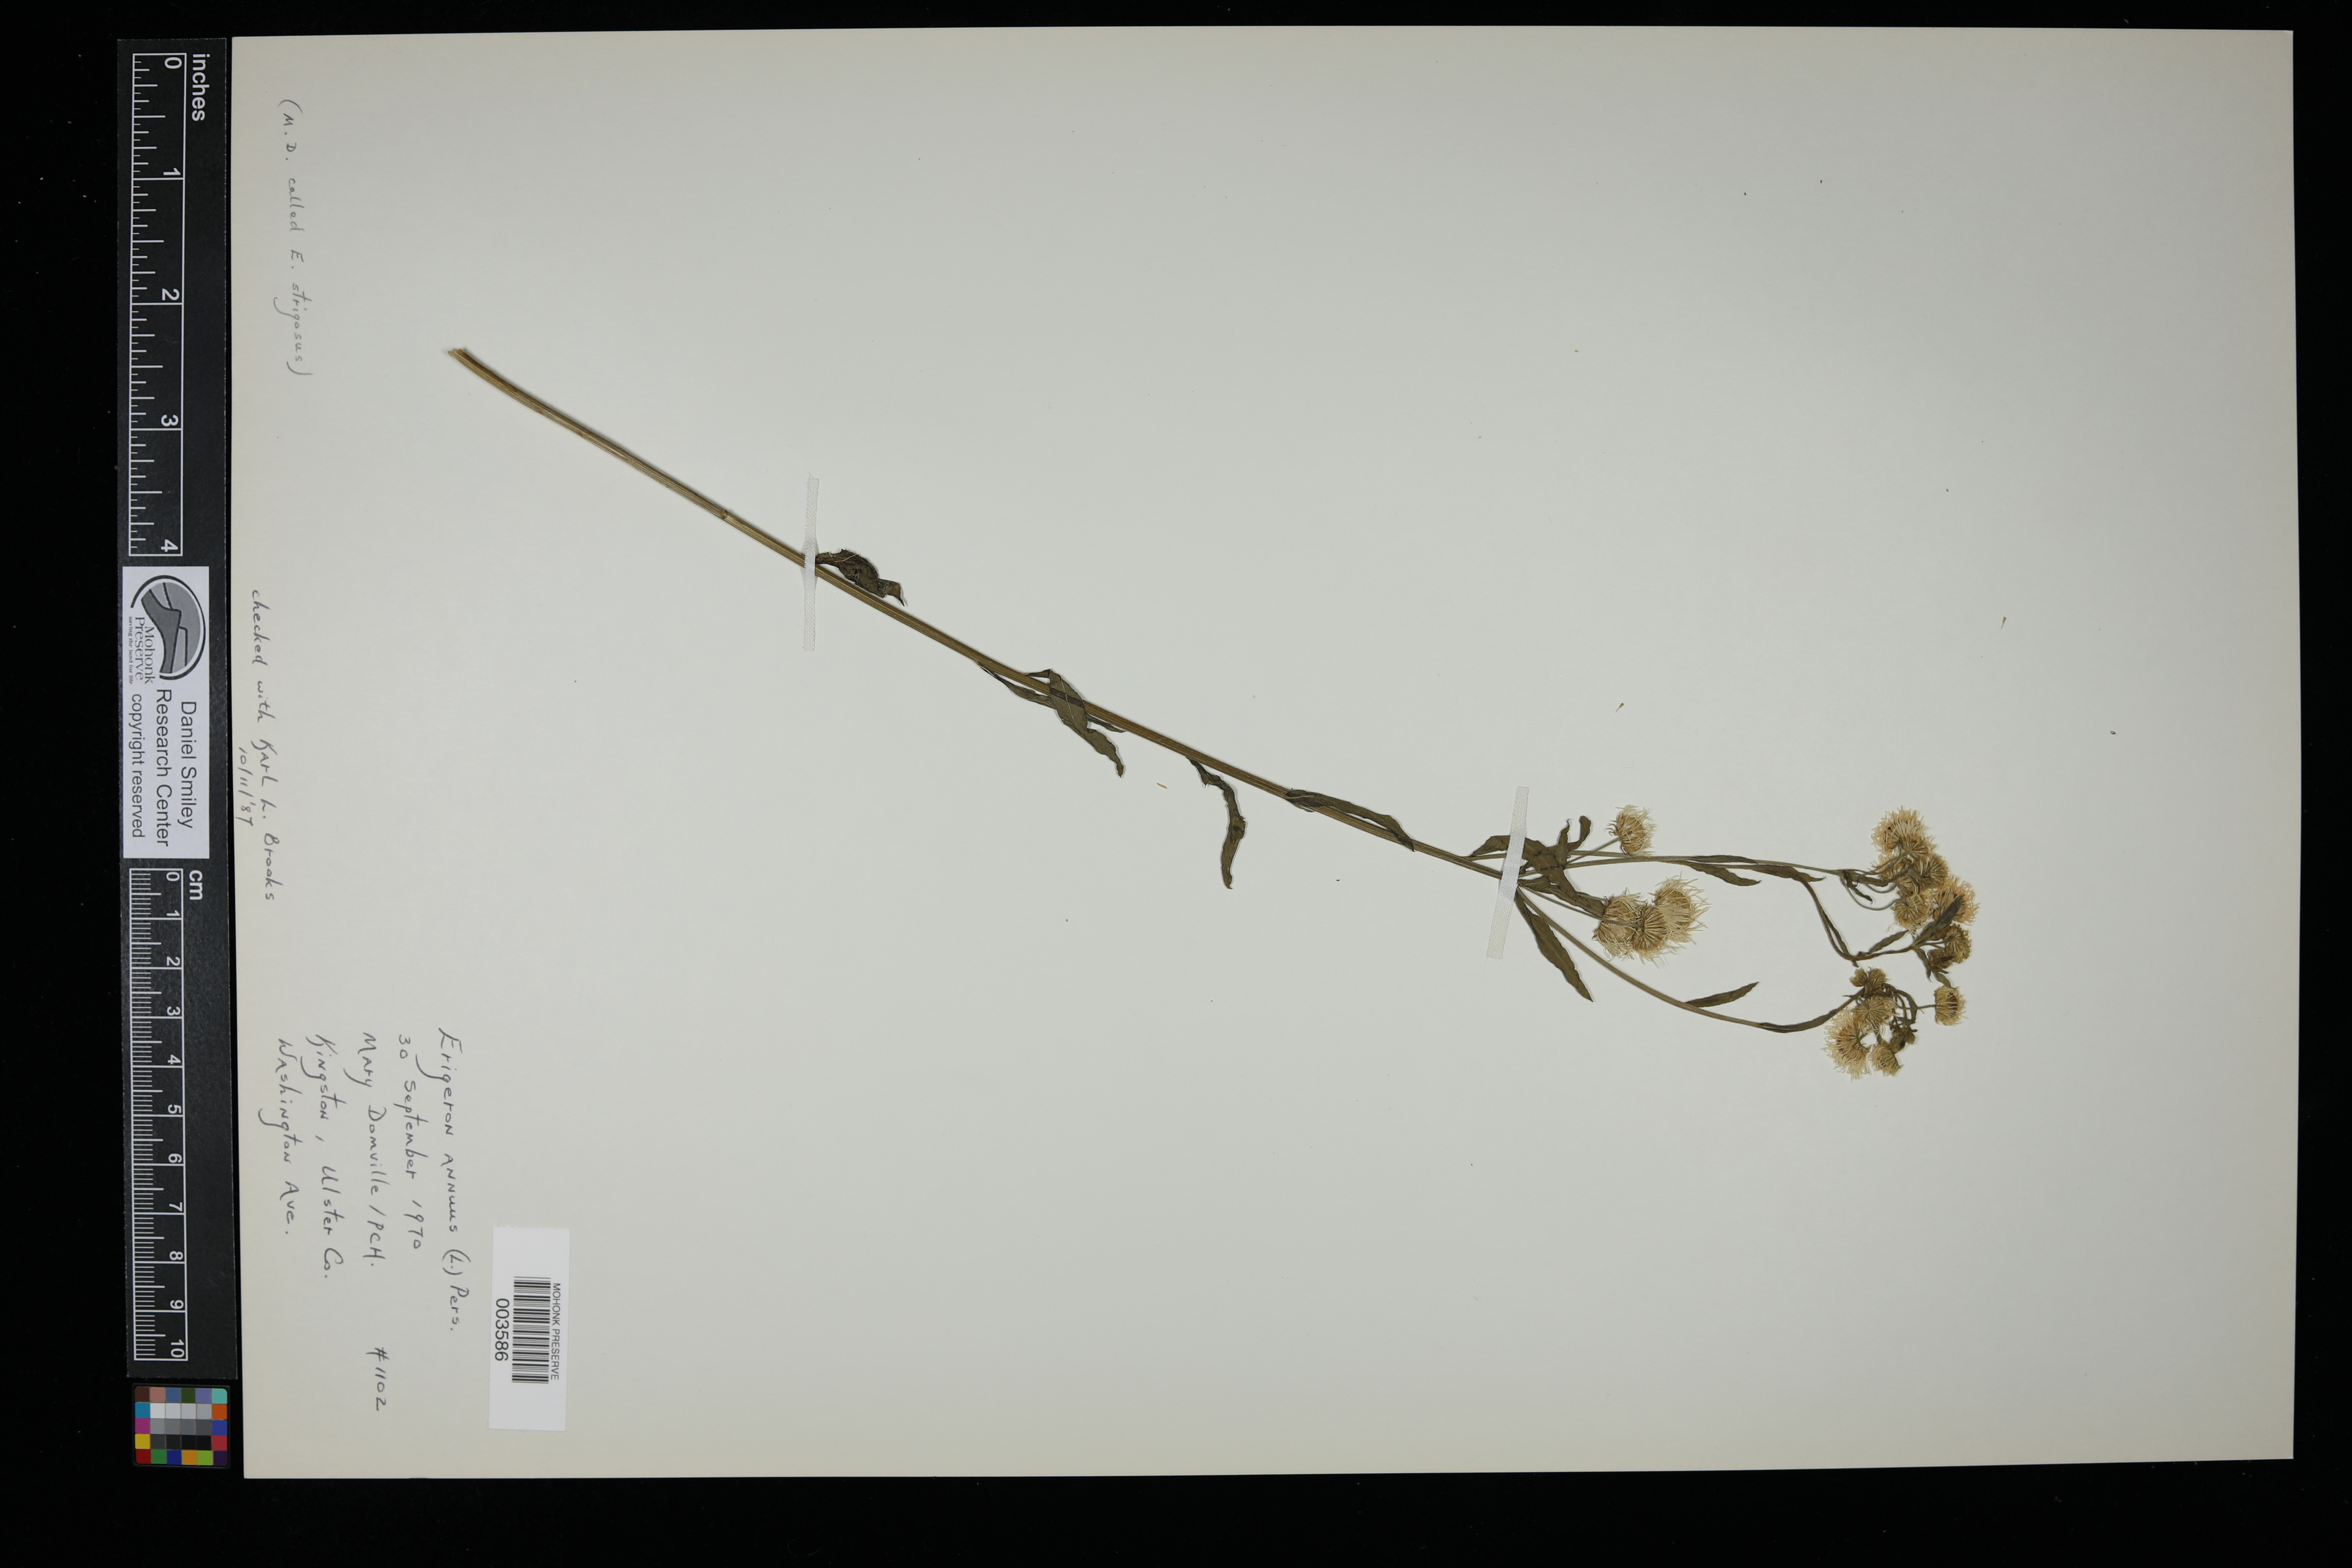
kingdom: Plantae
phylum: Tracheophyta
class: Magnoliopsida
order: Asterales
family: Asteraceae
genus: Erigeron
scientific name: Erigeron annuus
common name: Tall fleabane
